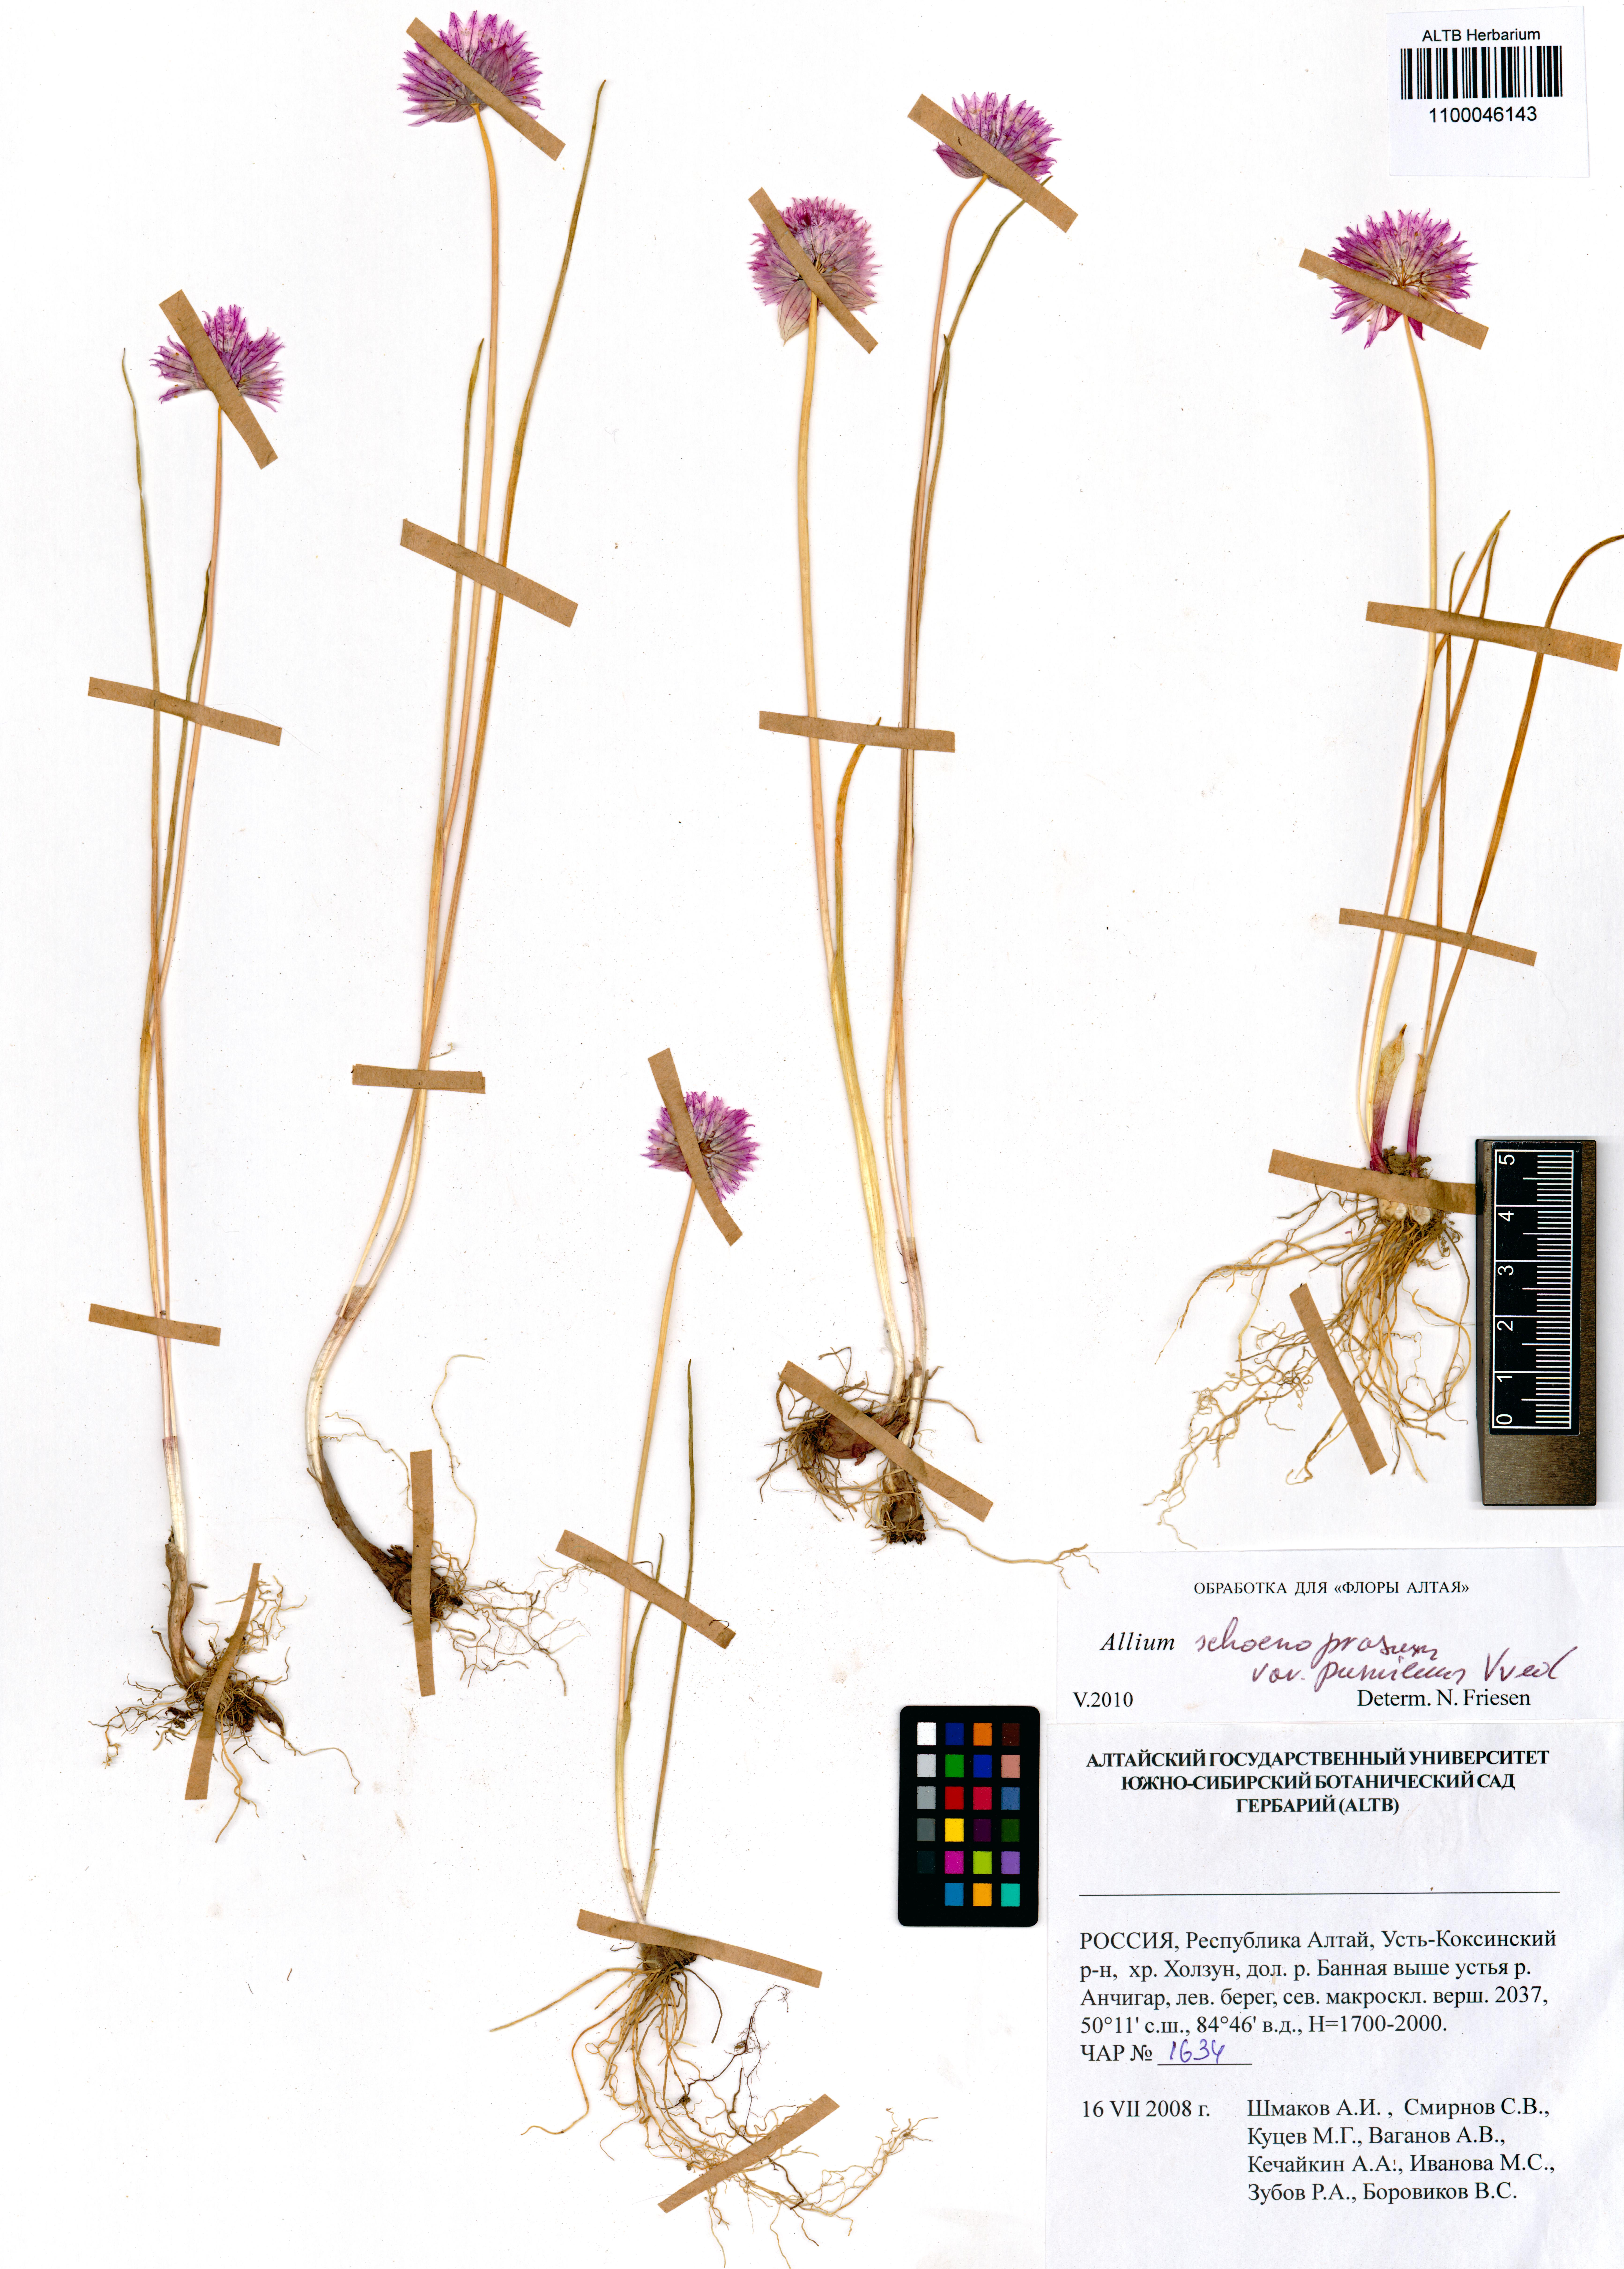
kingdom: Plantae
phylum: Tracheophyta
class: Liliopsida
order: Asparagales
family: Amaryllidaceae
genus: Allium
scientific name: Allium schoenoprasum
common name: Chives
